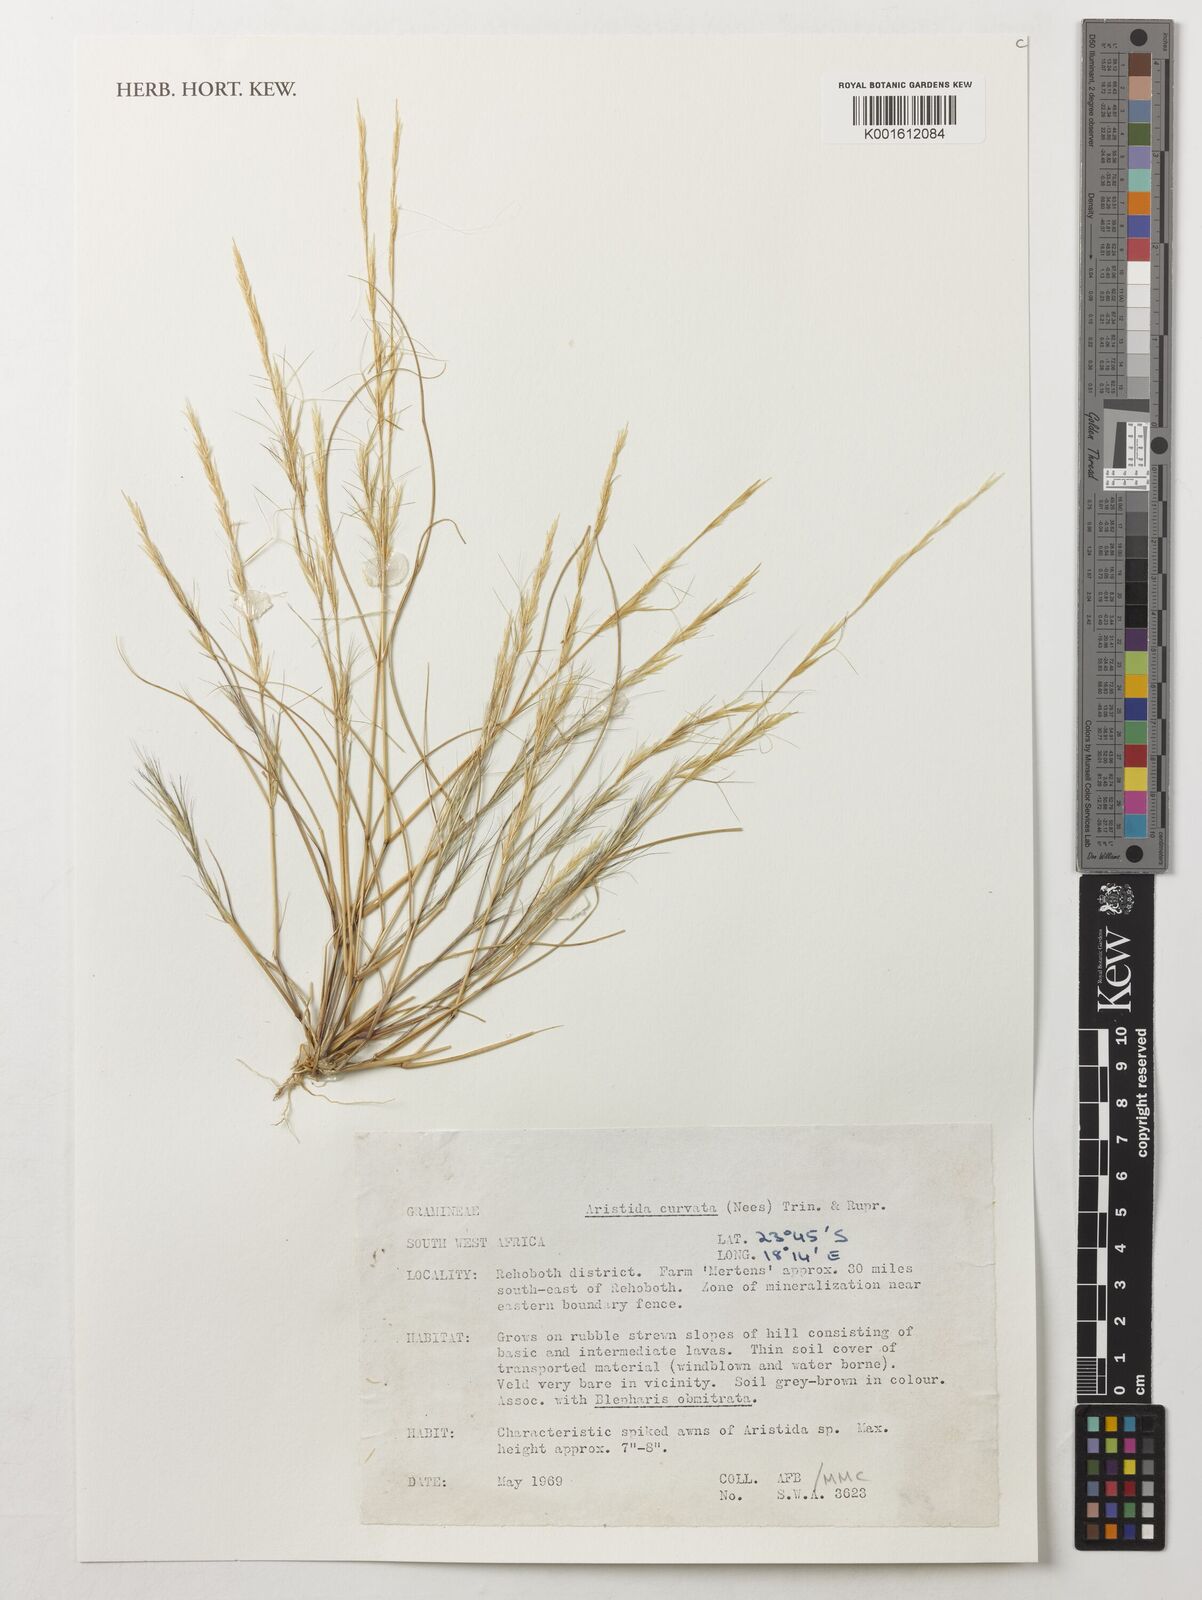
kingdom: Plantae
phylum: Tracheophyta
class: Liliopsida
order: Poales
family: Poaceae
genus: Aristida
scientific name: Aristida adscensionis
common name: Sixweeks threeawn
